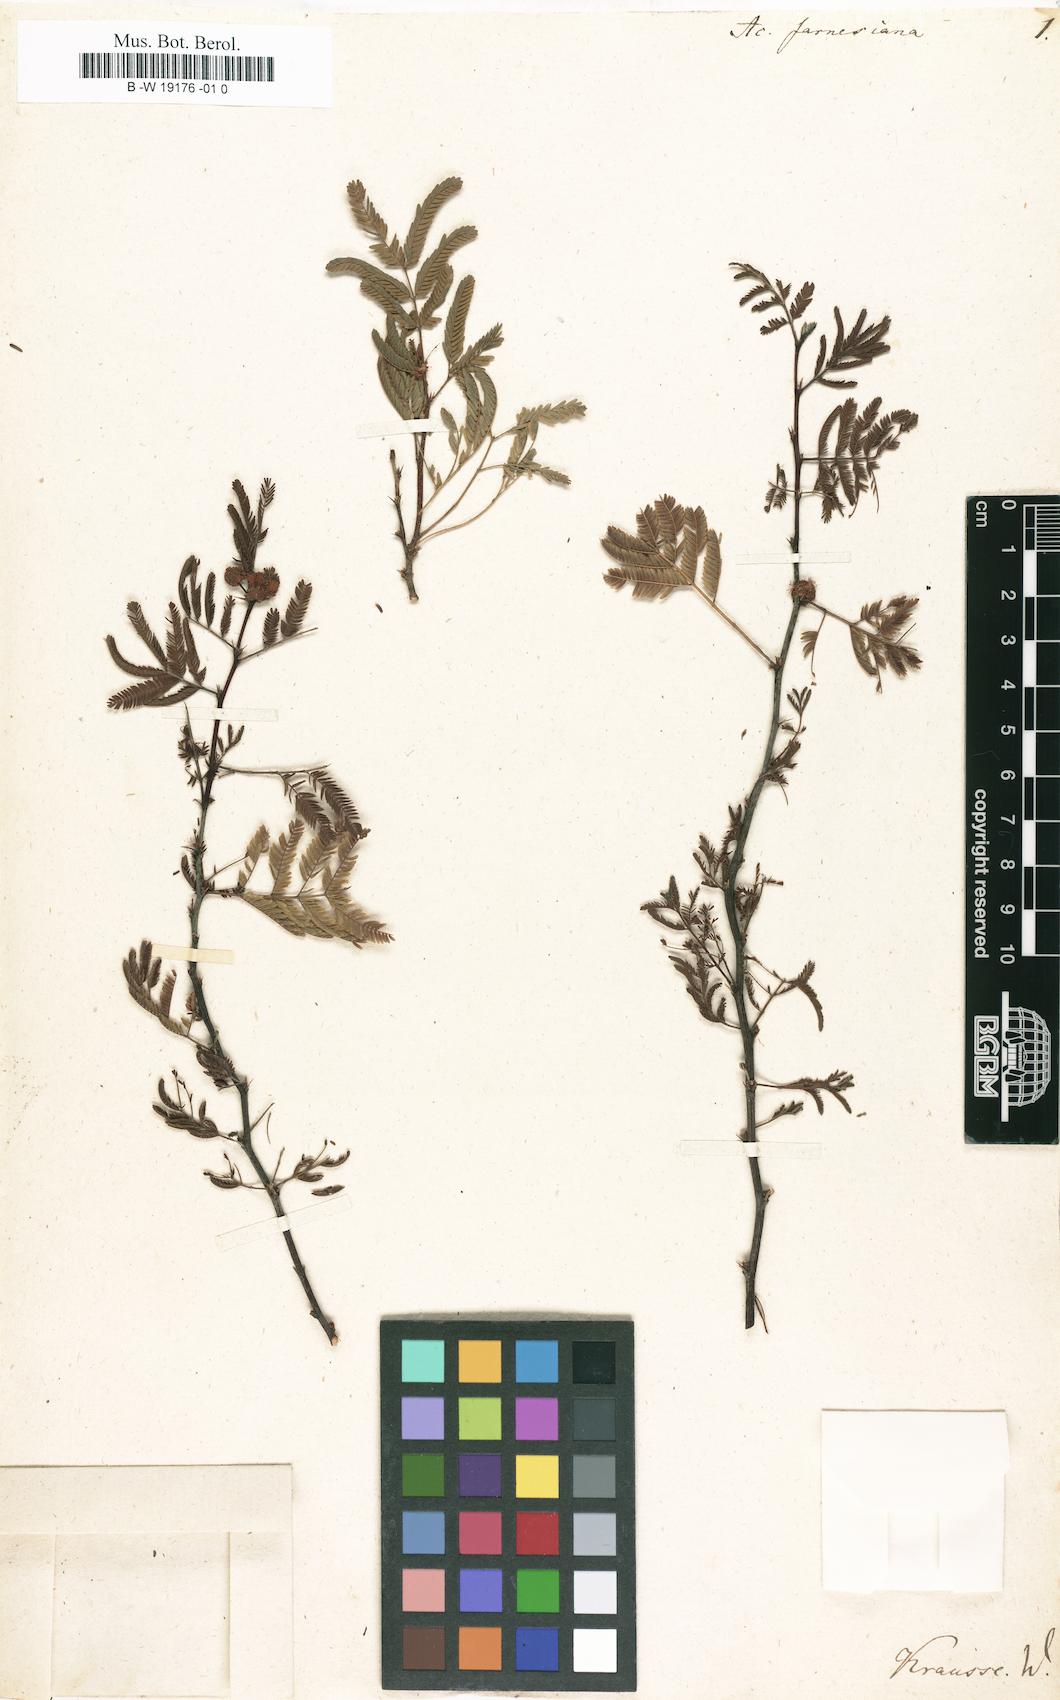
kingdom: Plantae
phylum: Tracheophyta
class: Magnoliopsida
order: Fabales
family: Fabaceae
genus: Vachellia
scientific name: Vachellia farnesiana
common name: Sweet acacia
